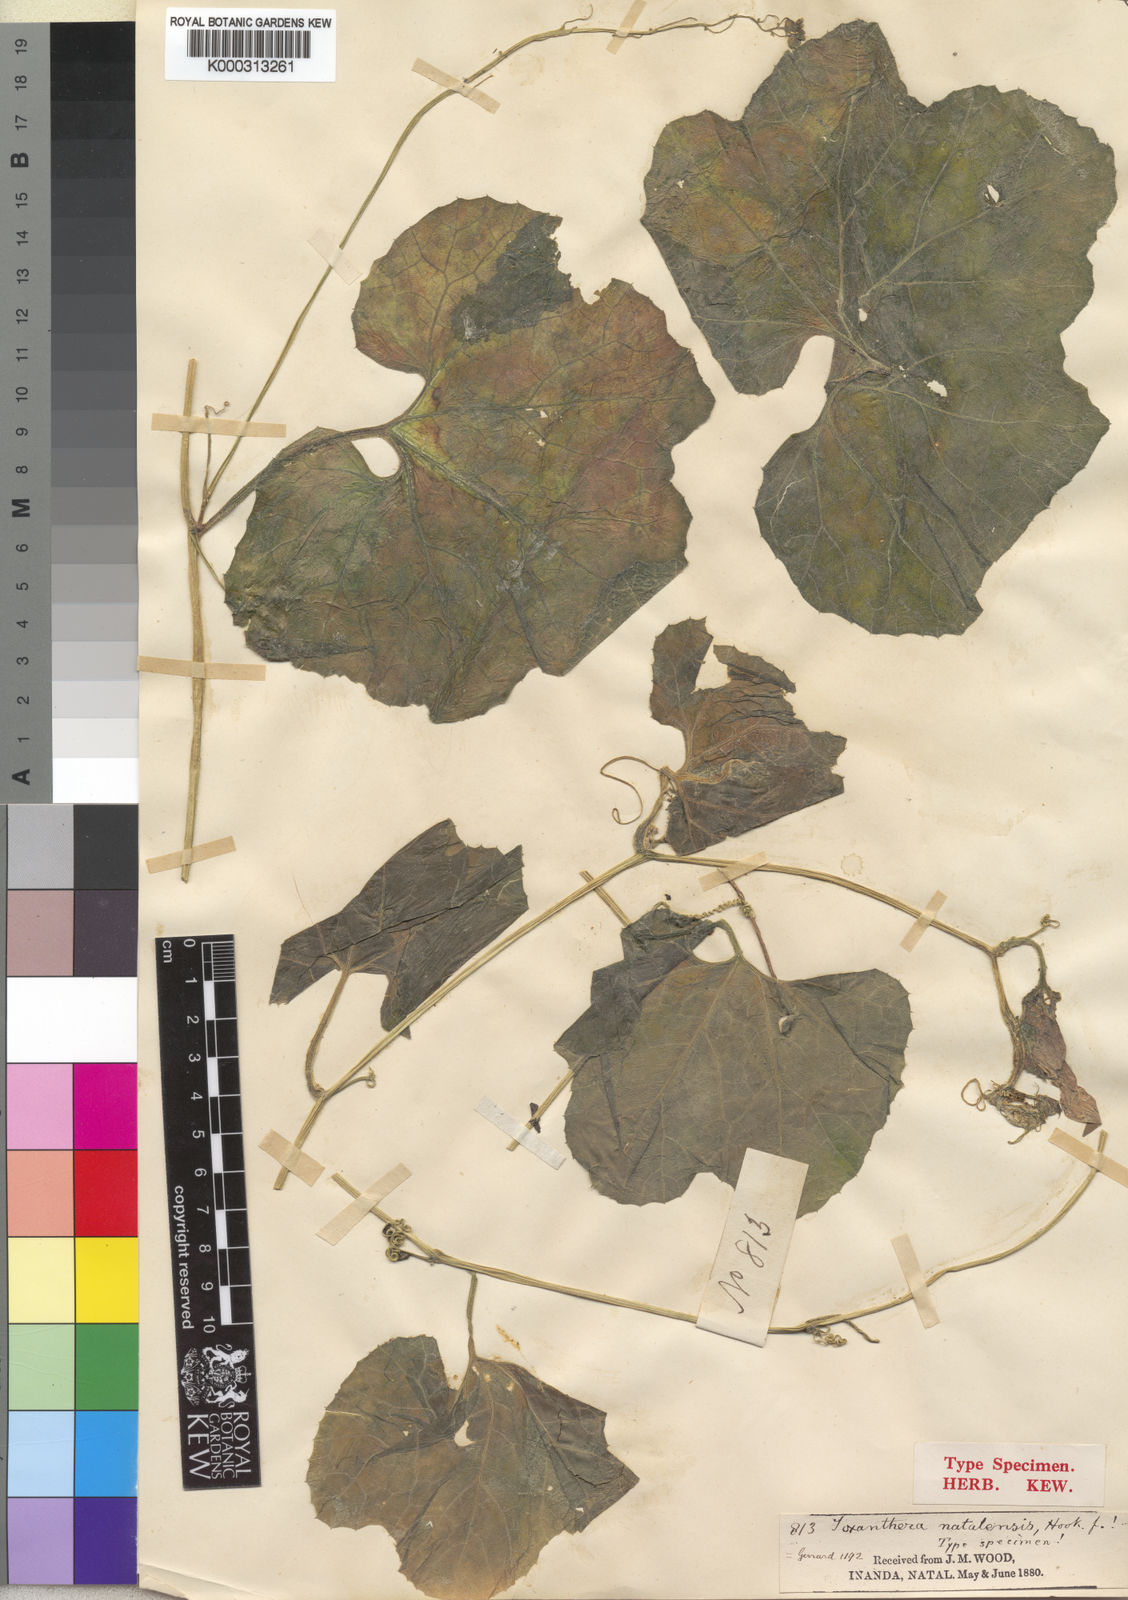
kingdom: Plantae
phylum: Tracheophyta
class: Magnoliopsida
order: Cucurbitales
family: Cucurbitaceae
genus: Kedrostis
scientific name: Kedrostis leloja
